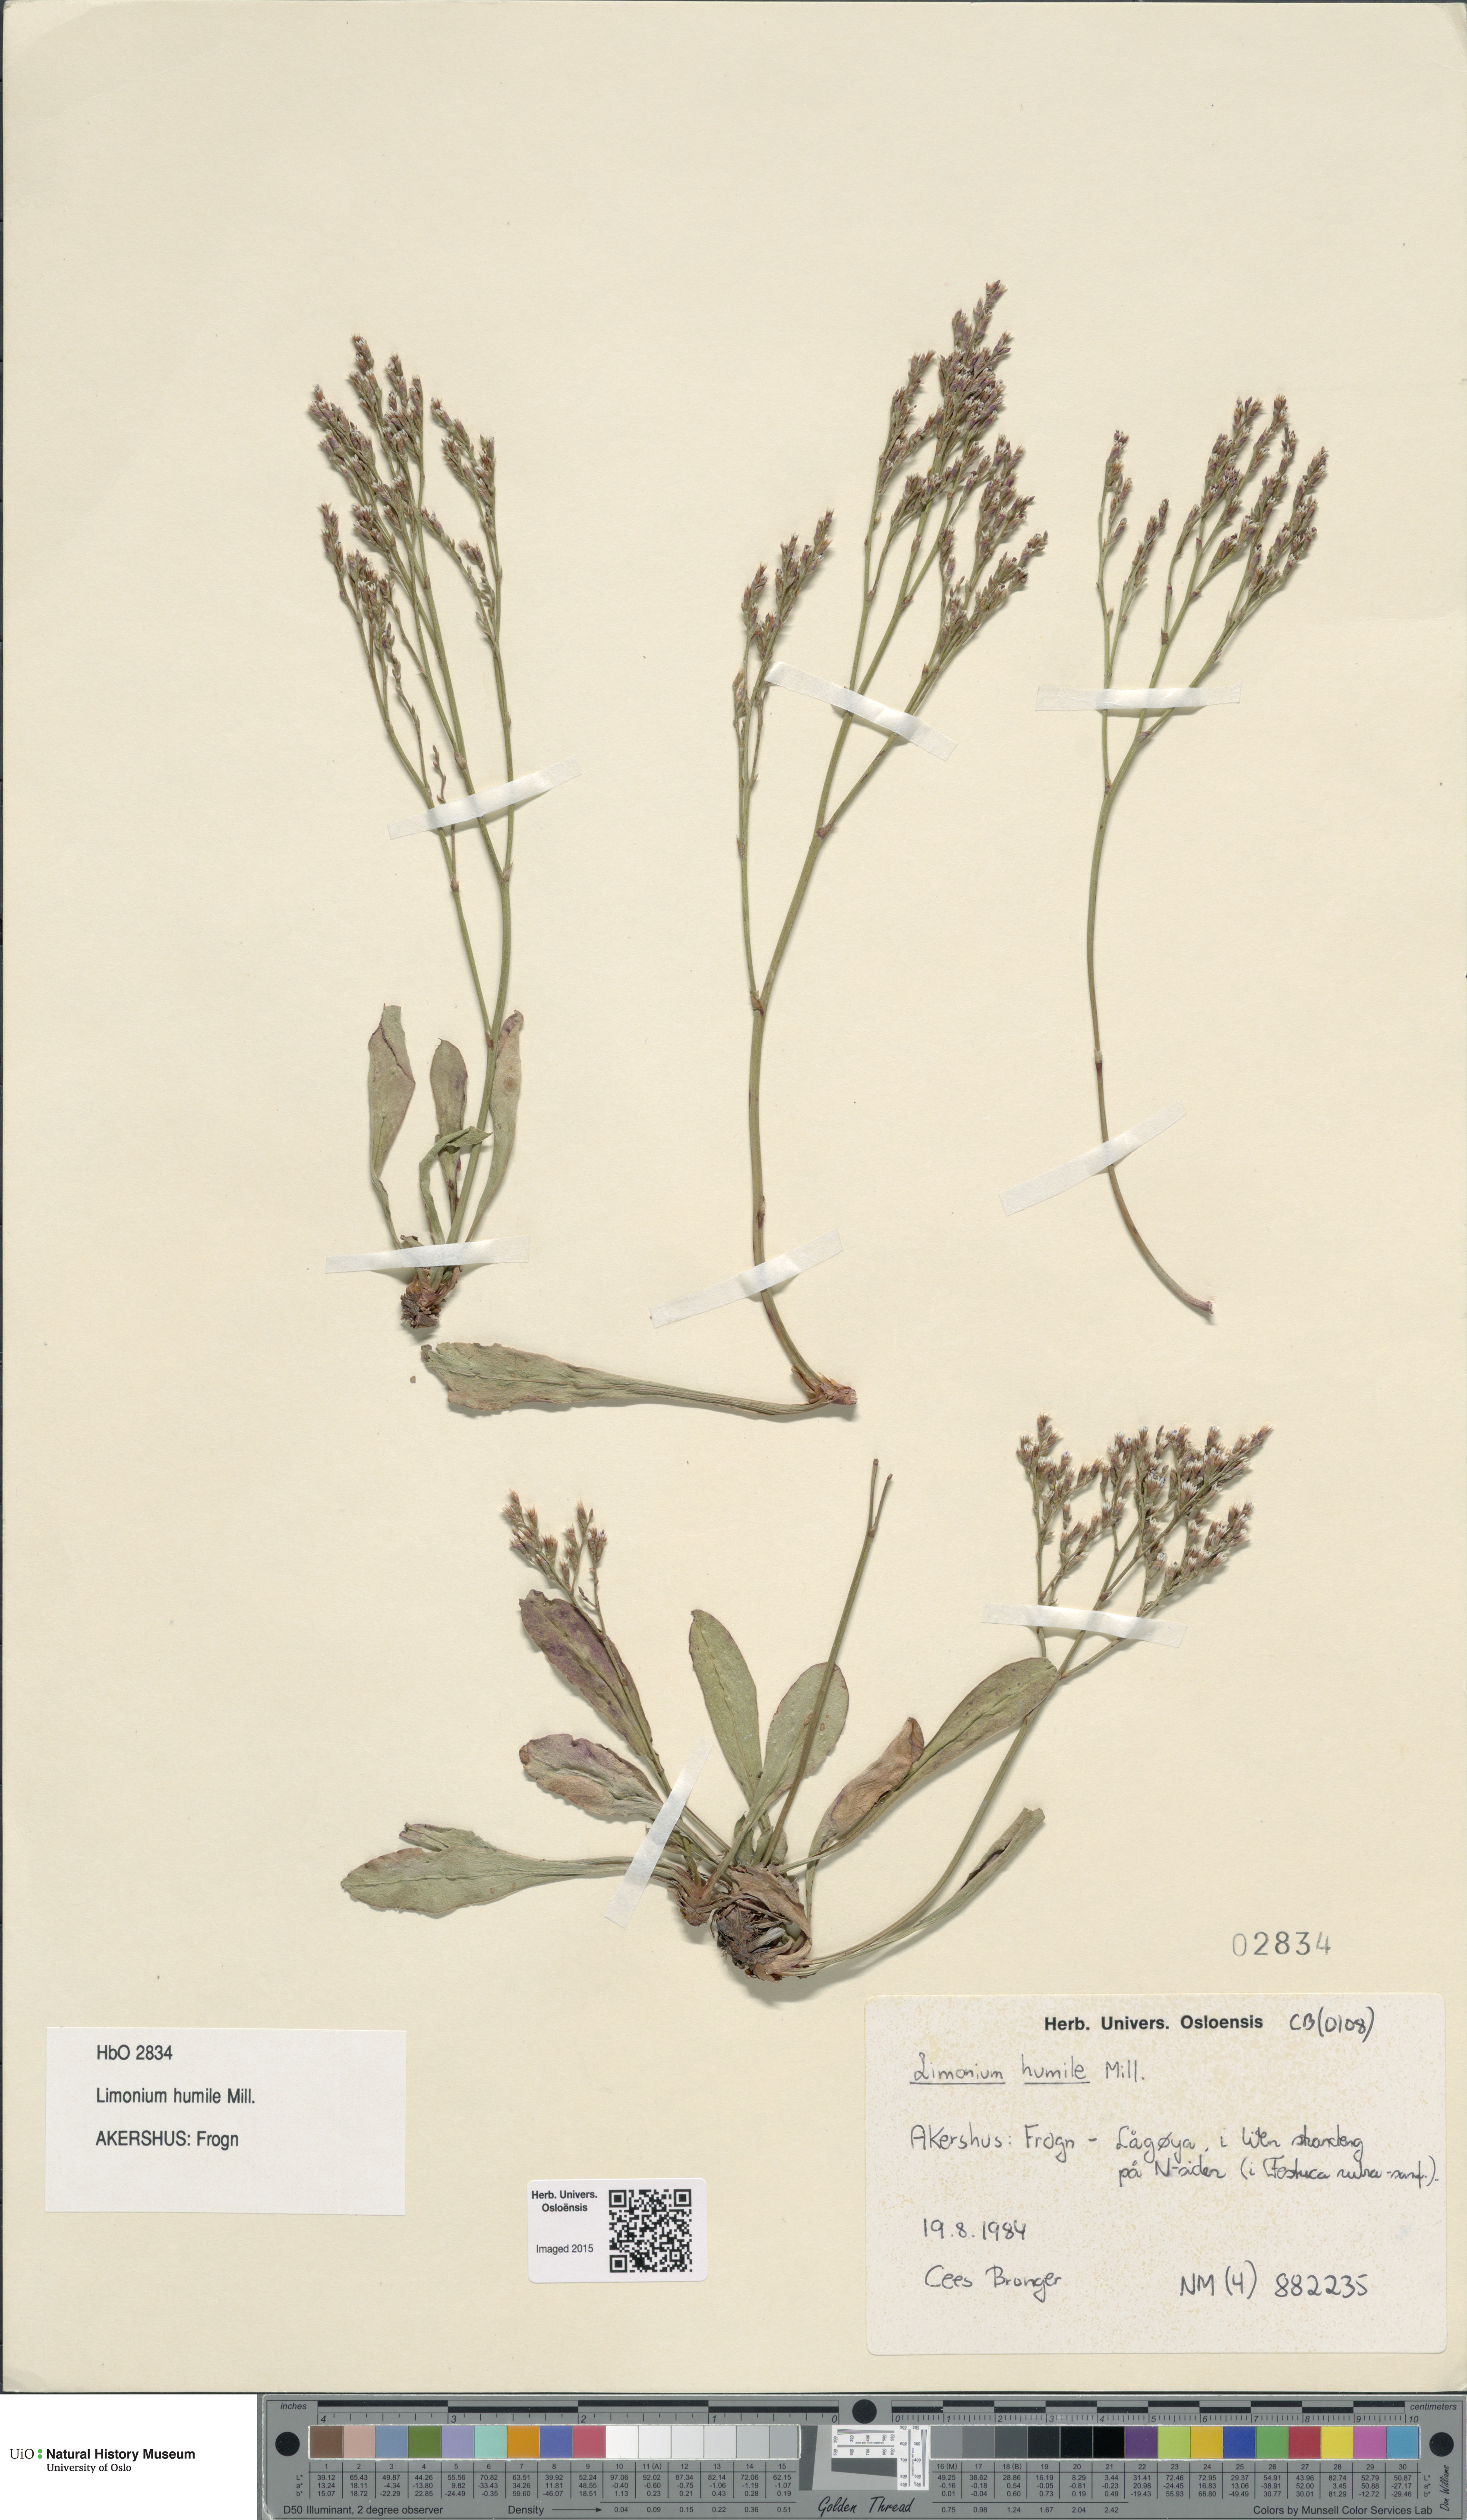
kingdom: Plantae
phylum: Tracheophyta
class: Magnoliopsida
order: Caryophyllales
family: Plumbaginaceae
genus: Limonium
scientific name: Limonium humile
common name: Lax-flowered sea-lavender
